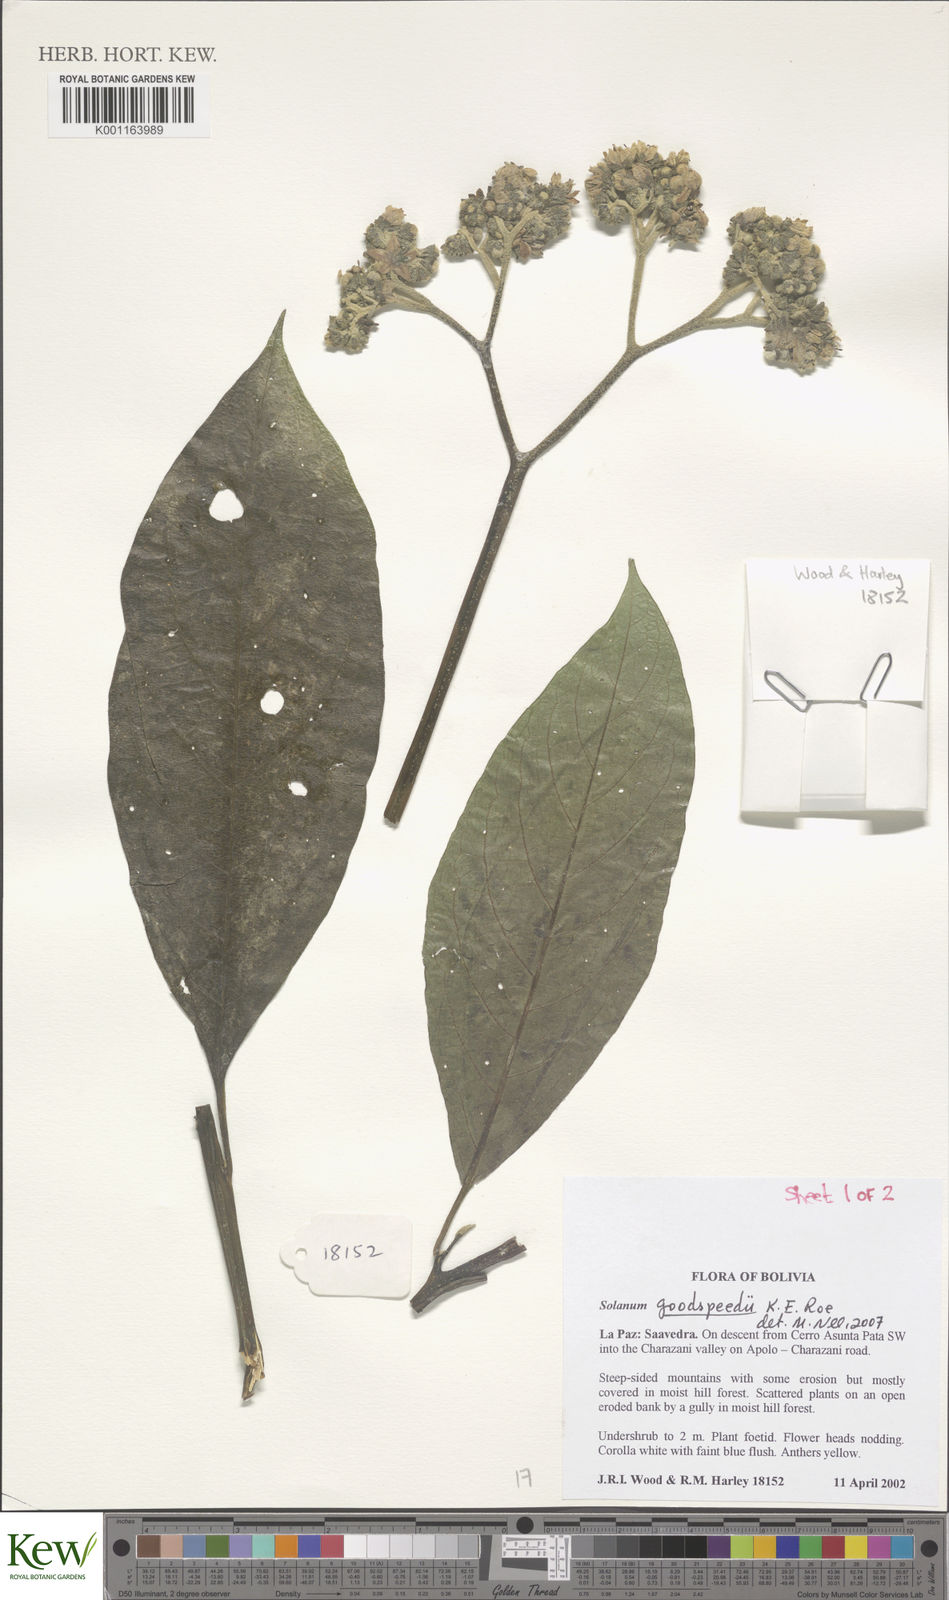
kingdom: Plantae
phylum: Tracheophyta
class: Magnoliopsida
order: Solanales
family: Solanaceae
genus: Solanum
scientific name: Solanum goodspeedii
